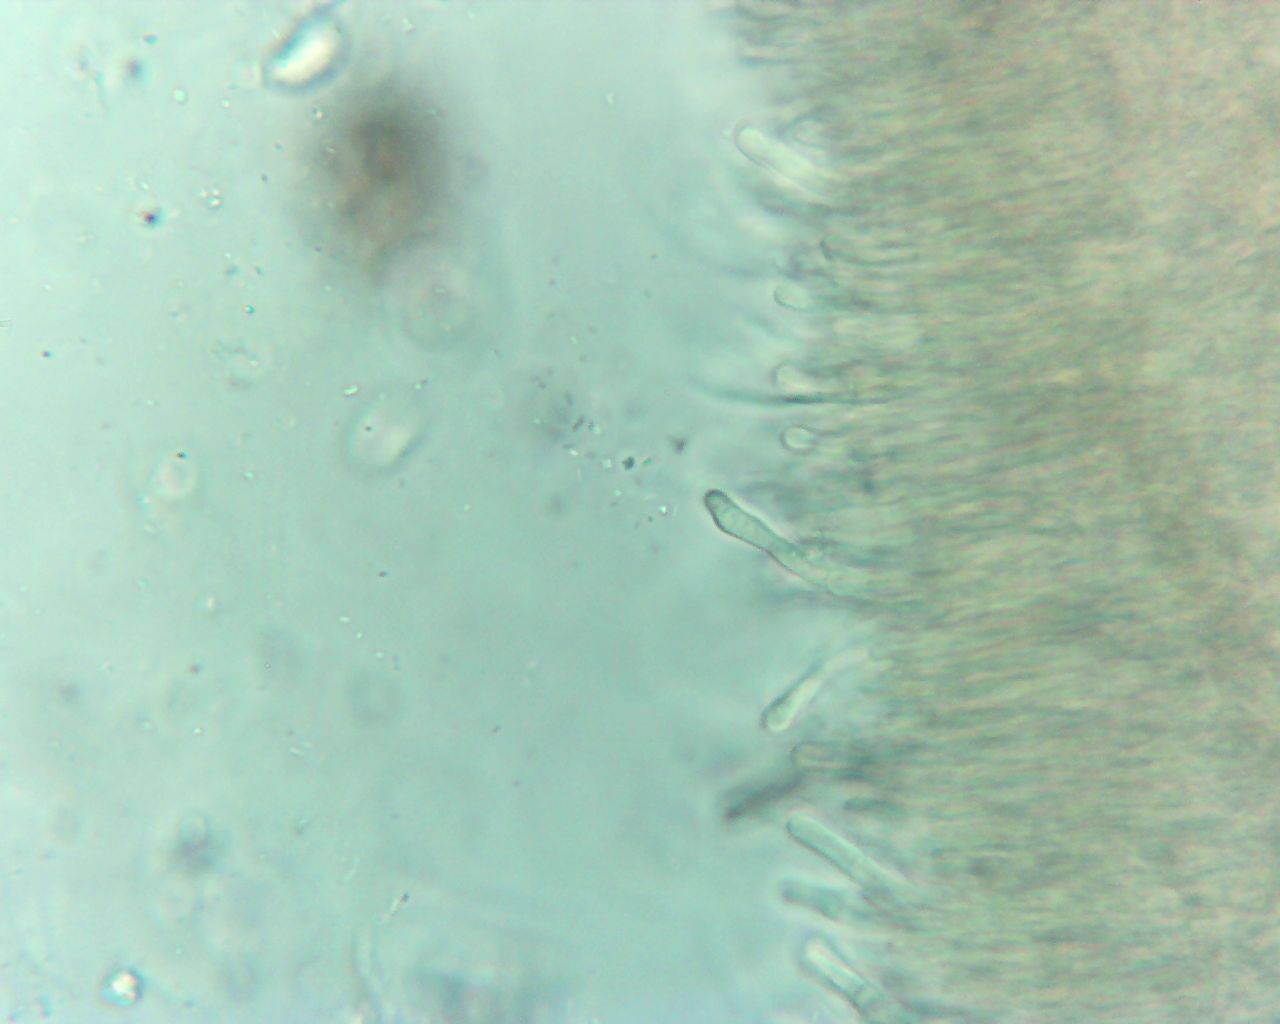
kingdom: Fungi
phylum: Basidiomycota
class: Dacrymycetes
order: Dacrymycetales
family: Dacrymycetaceae
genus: Dacrymyces
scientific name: Dacrymyces
